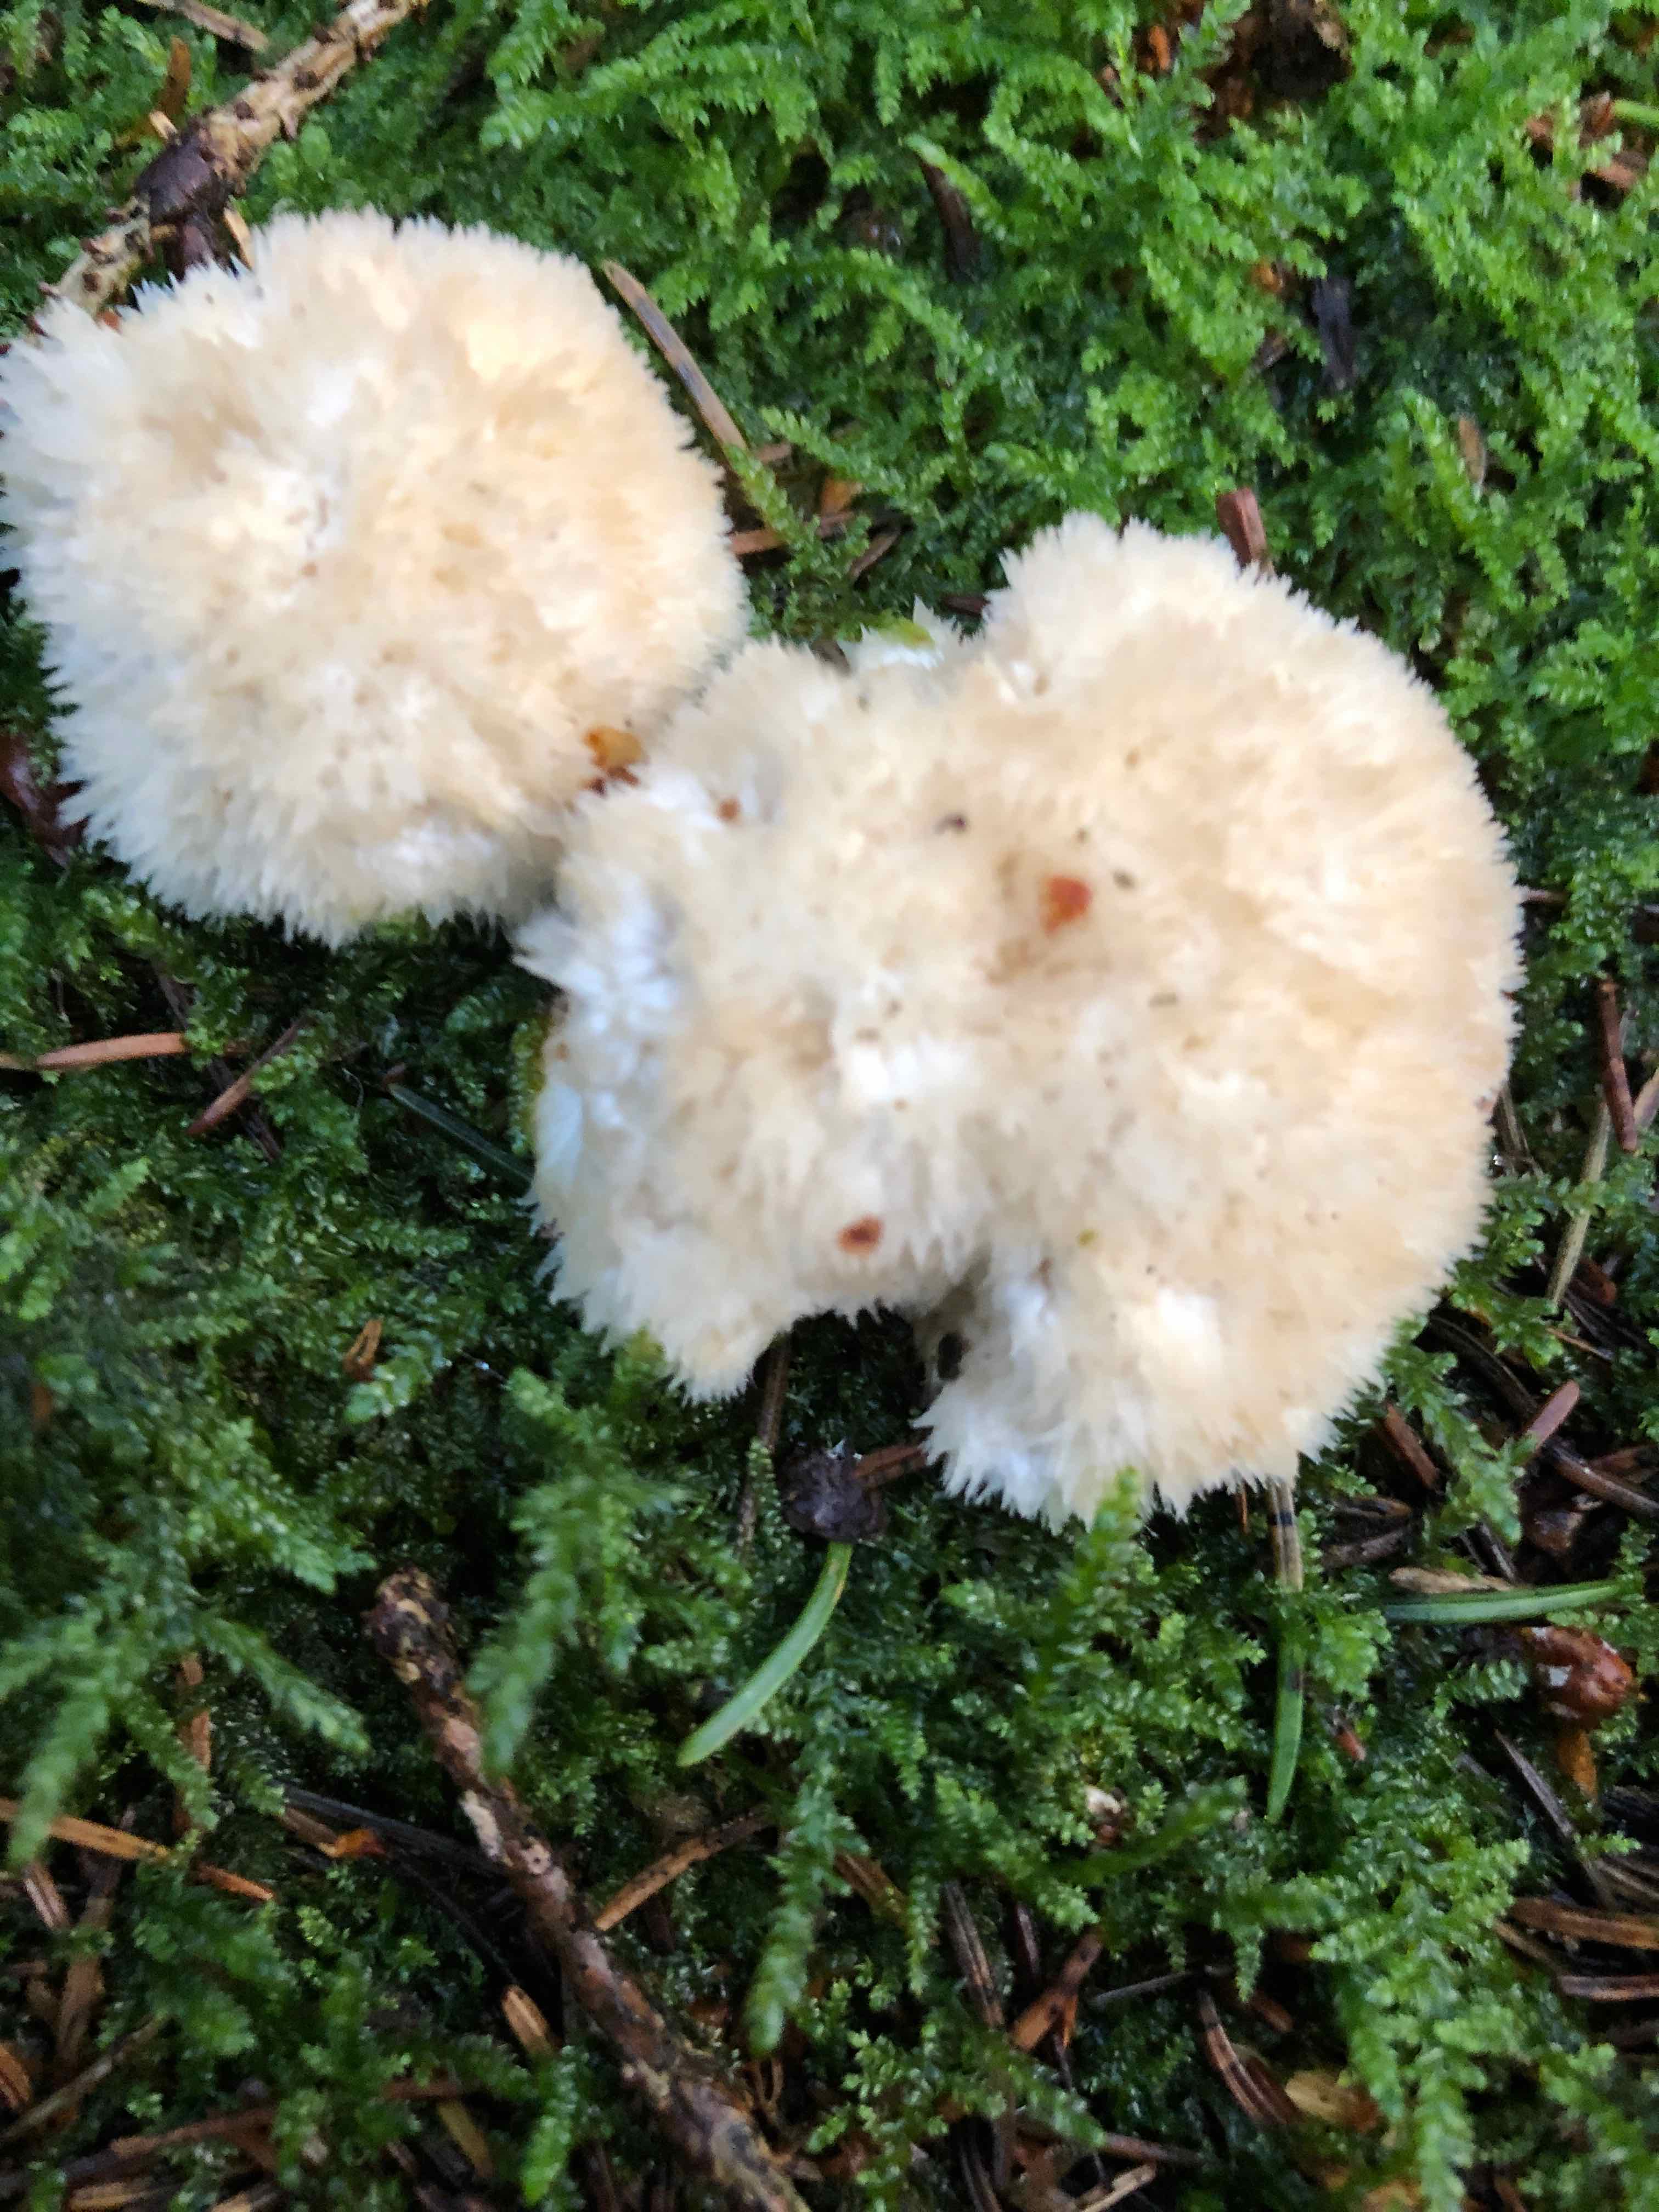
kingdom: Fungi
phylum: Basidiomycota
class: Agaricomycetes
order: Polyporales
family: Dacryobolaceae
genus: Postia
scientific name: Postia ptychogaster
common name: støvende kødporesvamp
